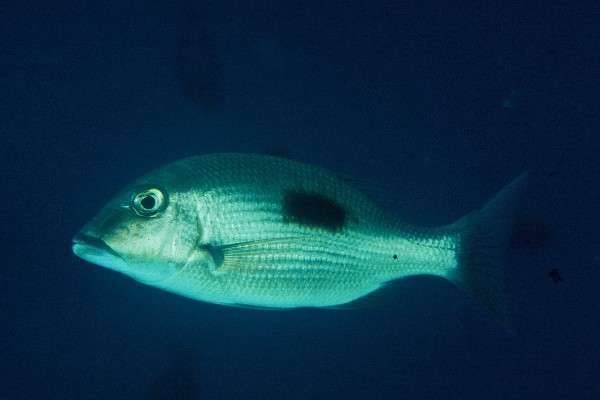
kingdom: Animalia
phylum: Chordata
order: Perciformes
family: Lethrinidae
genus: Lethrinus
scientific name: Lethrinus harak
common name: Blackspot emperor
